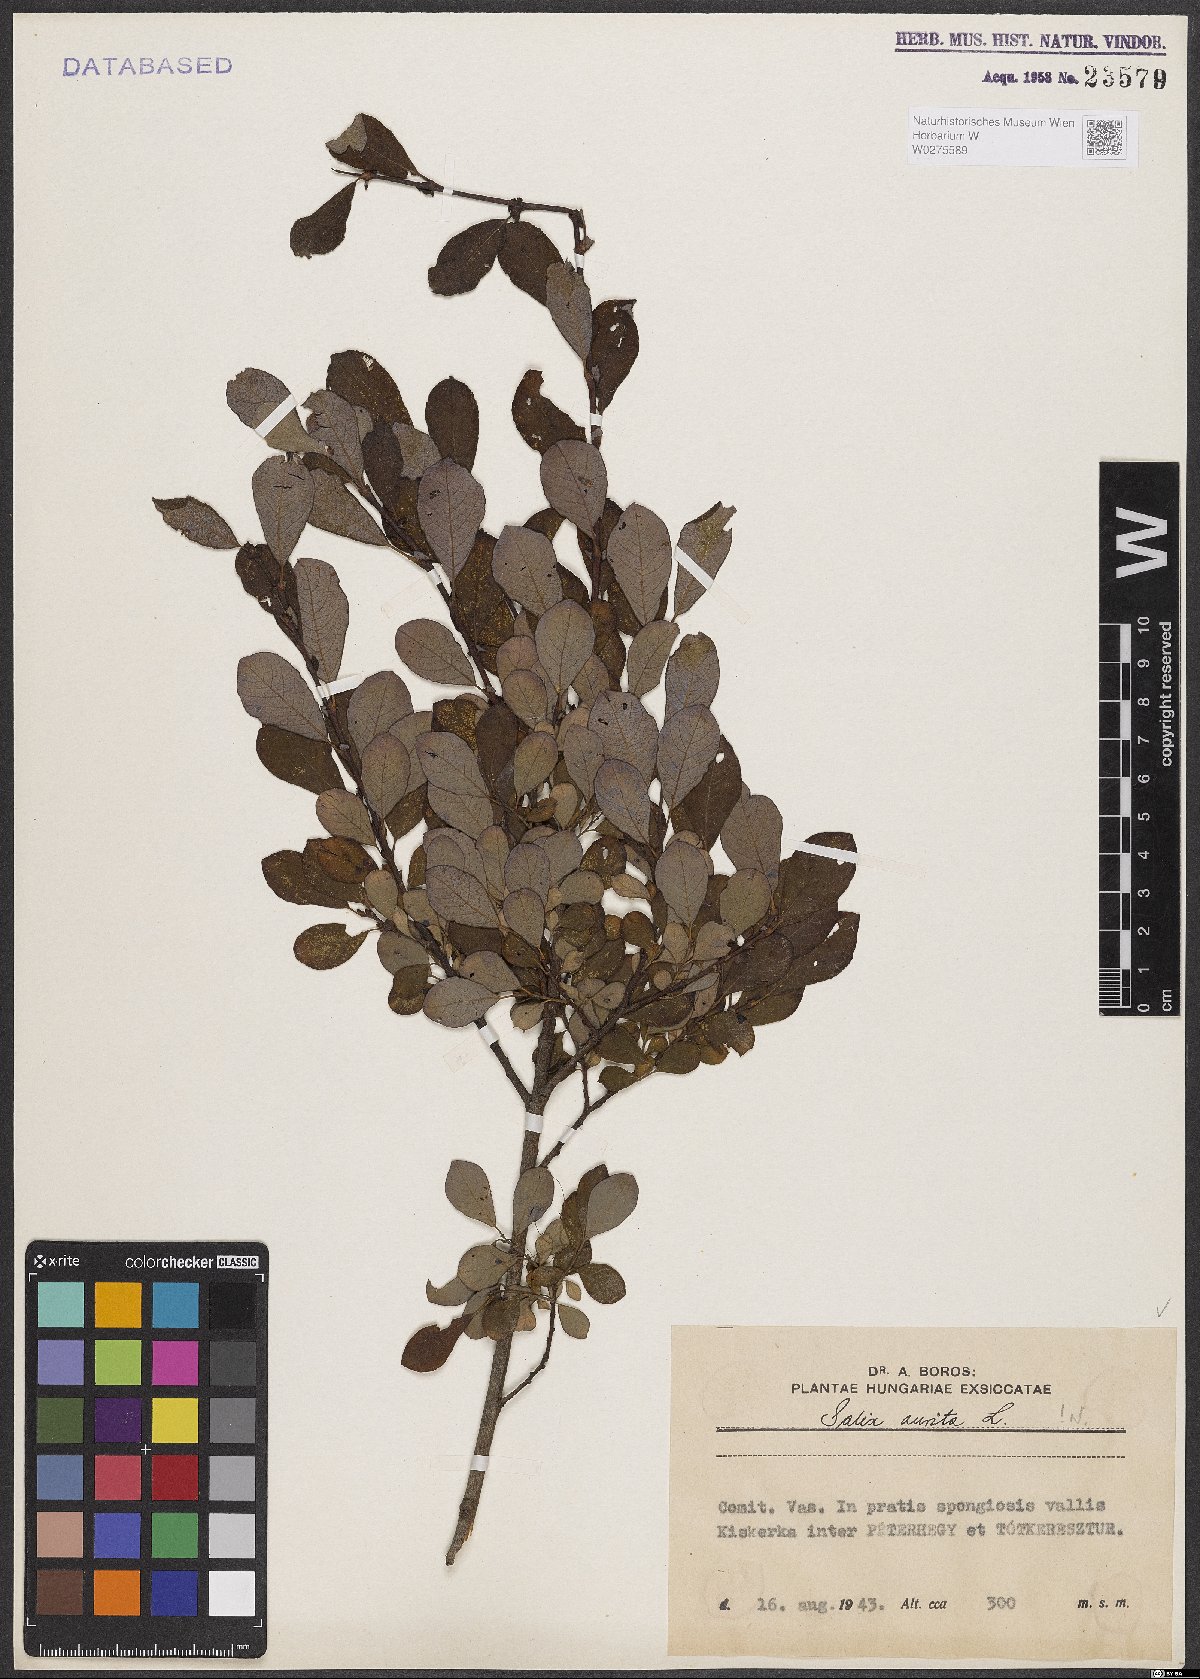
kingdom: Plantae
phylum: Tracheophyta
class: Magnoliopsida
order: Malpighiales
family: Salicaceae
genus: Salix
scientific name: Salix aurita
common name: Eared willow
